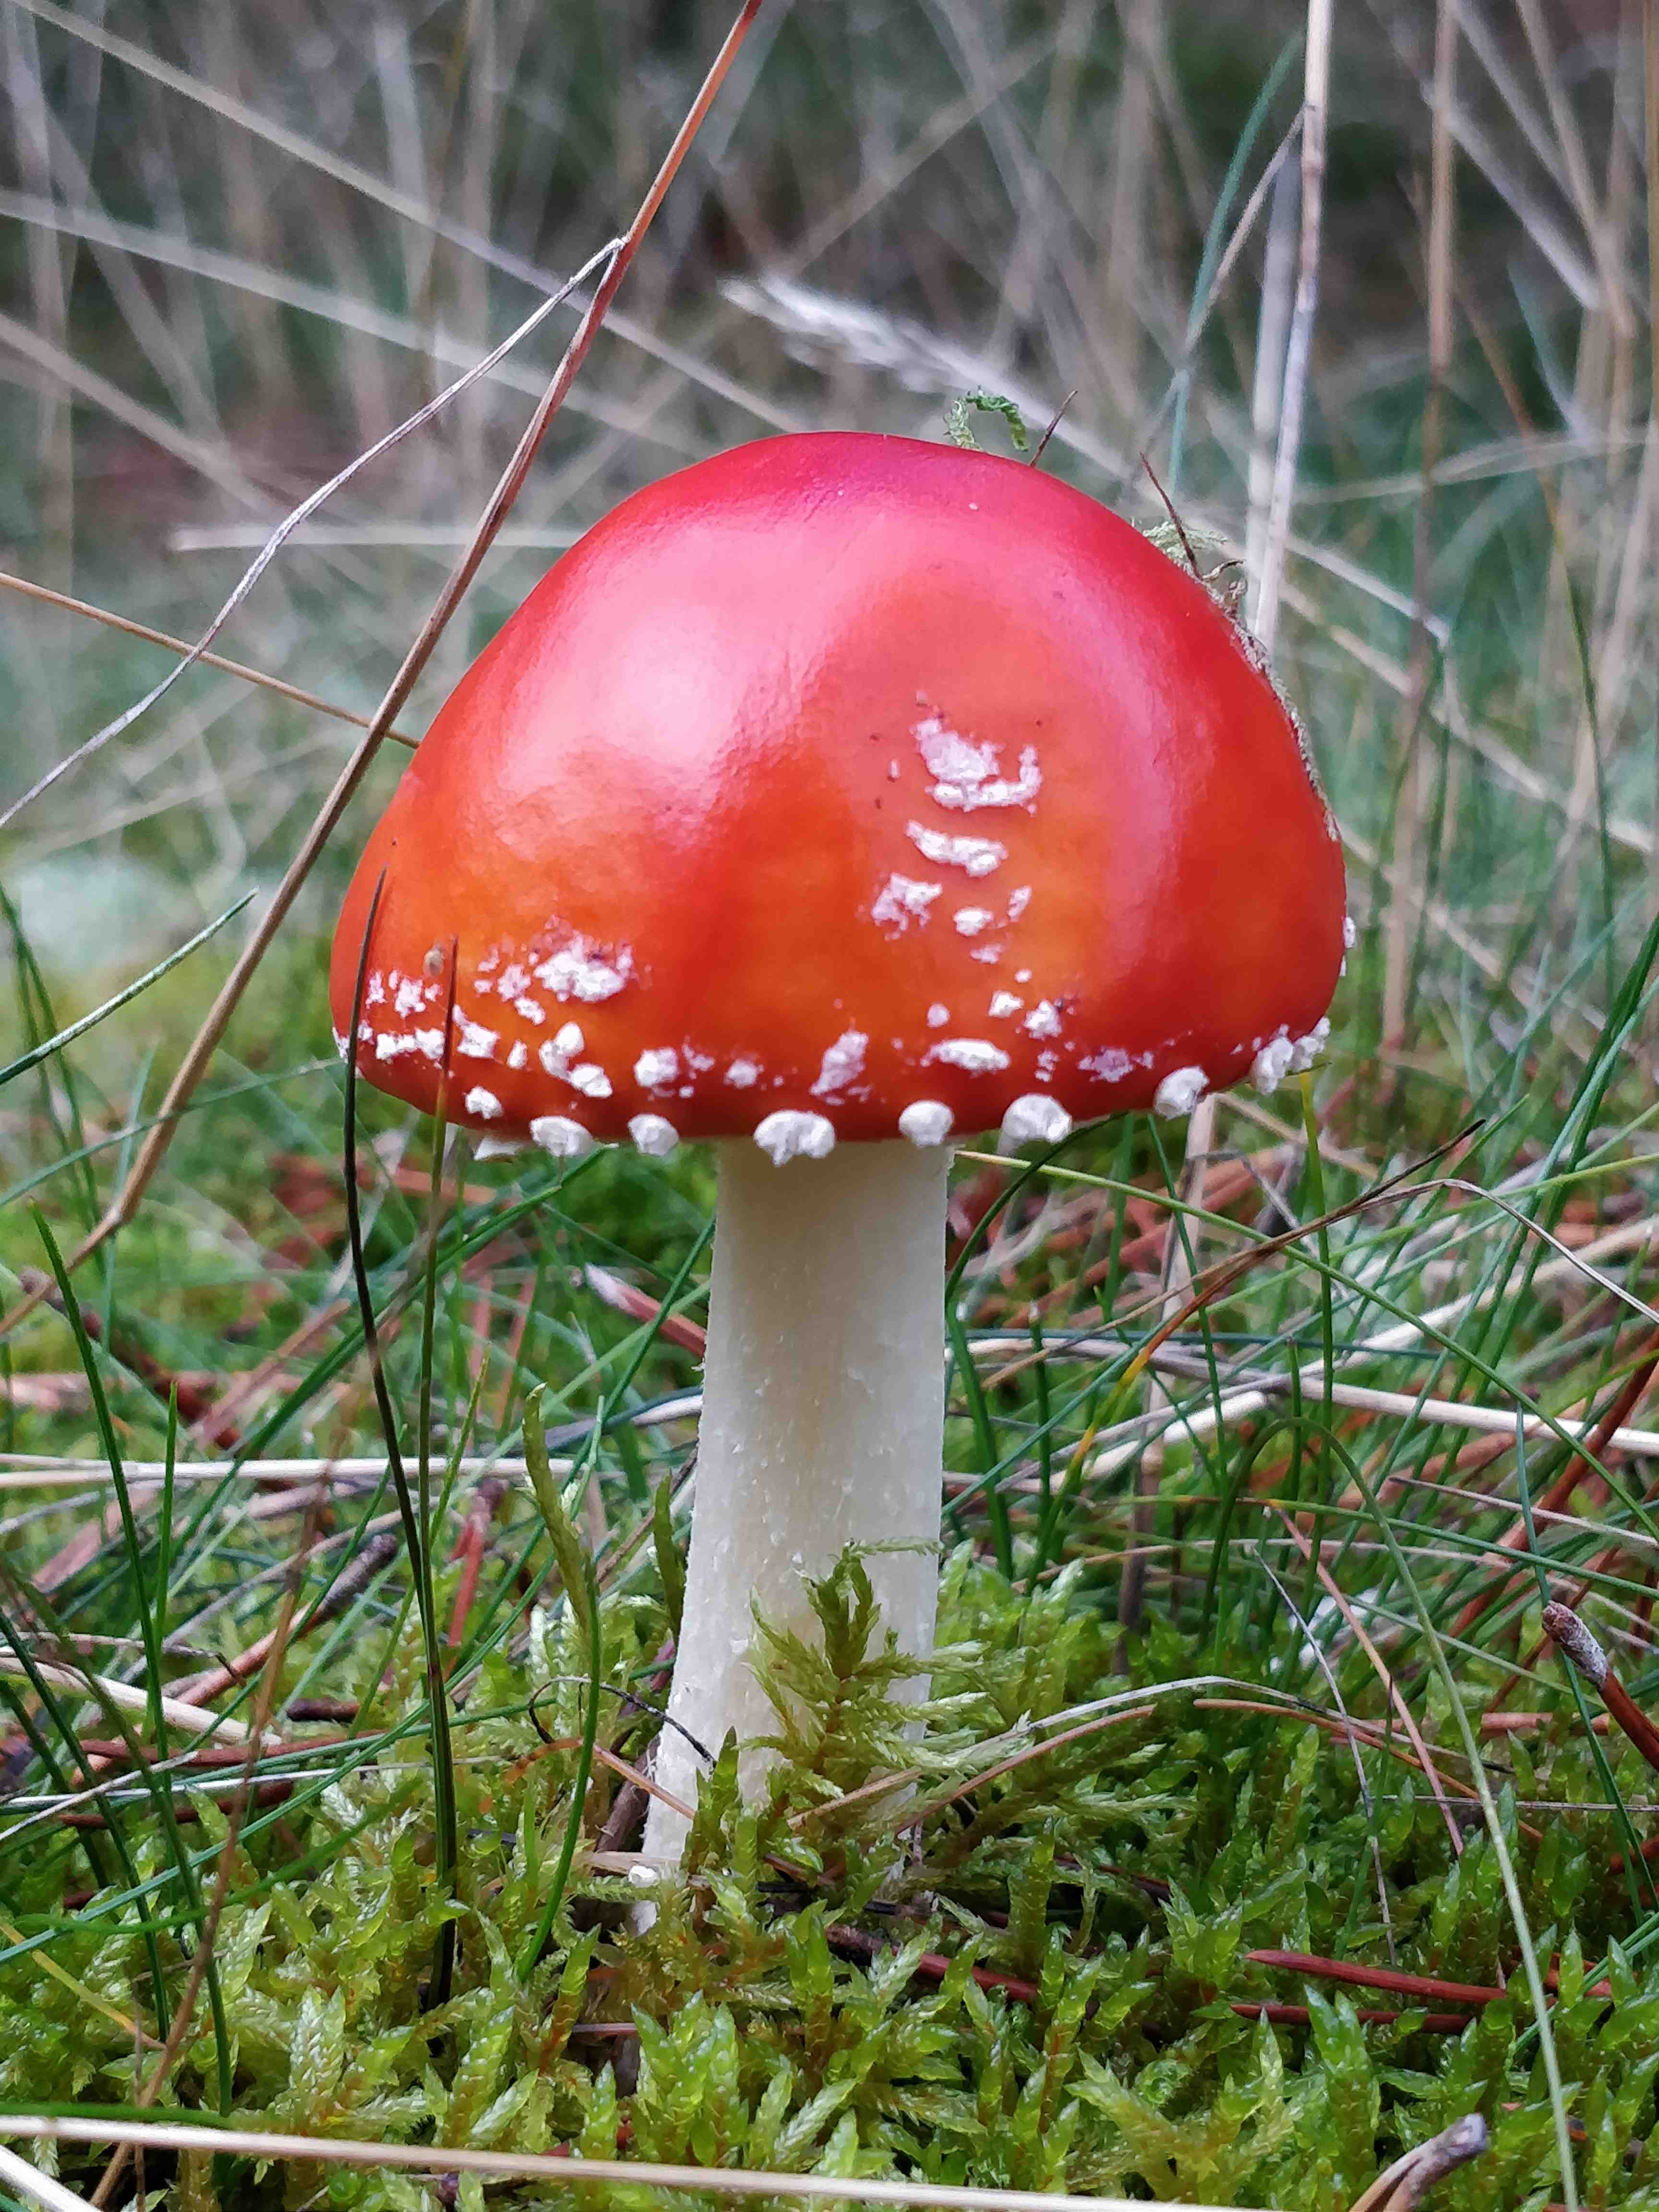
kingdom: Fungi
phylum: Basidiomycota
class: Agaricomycetes
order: Agaricales
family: Amanitaceae
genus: Amanita
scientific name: Amanita muscaria
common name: rød fluesvamp
